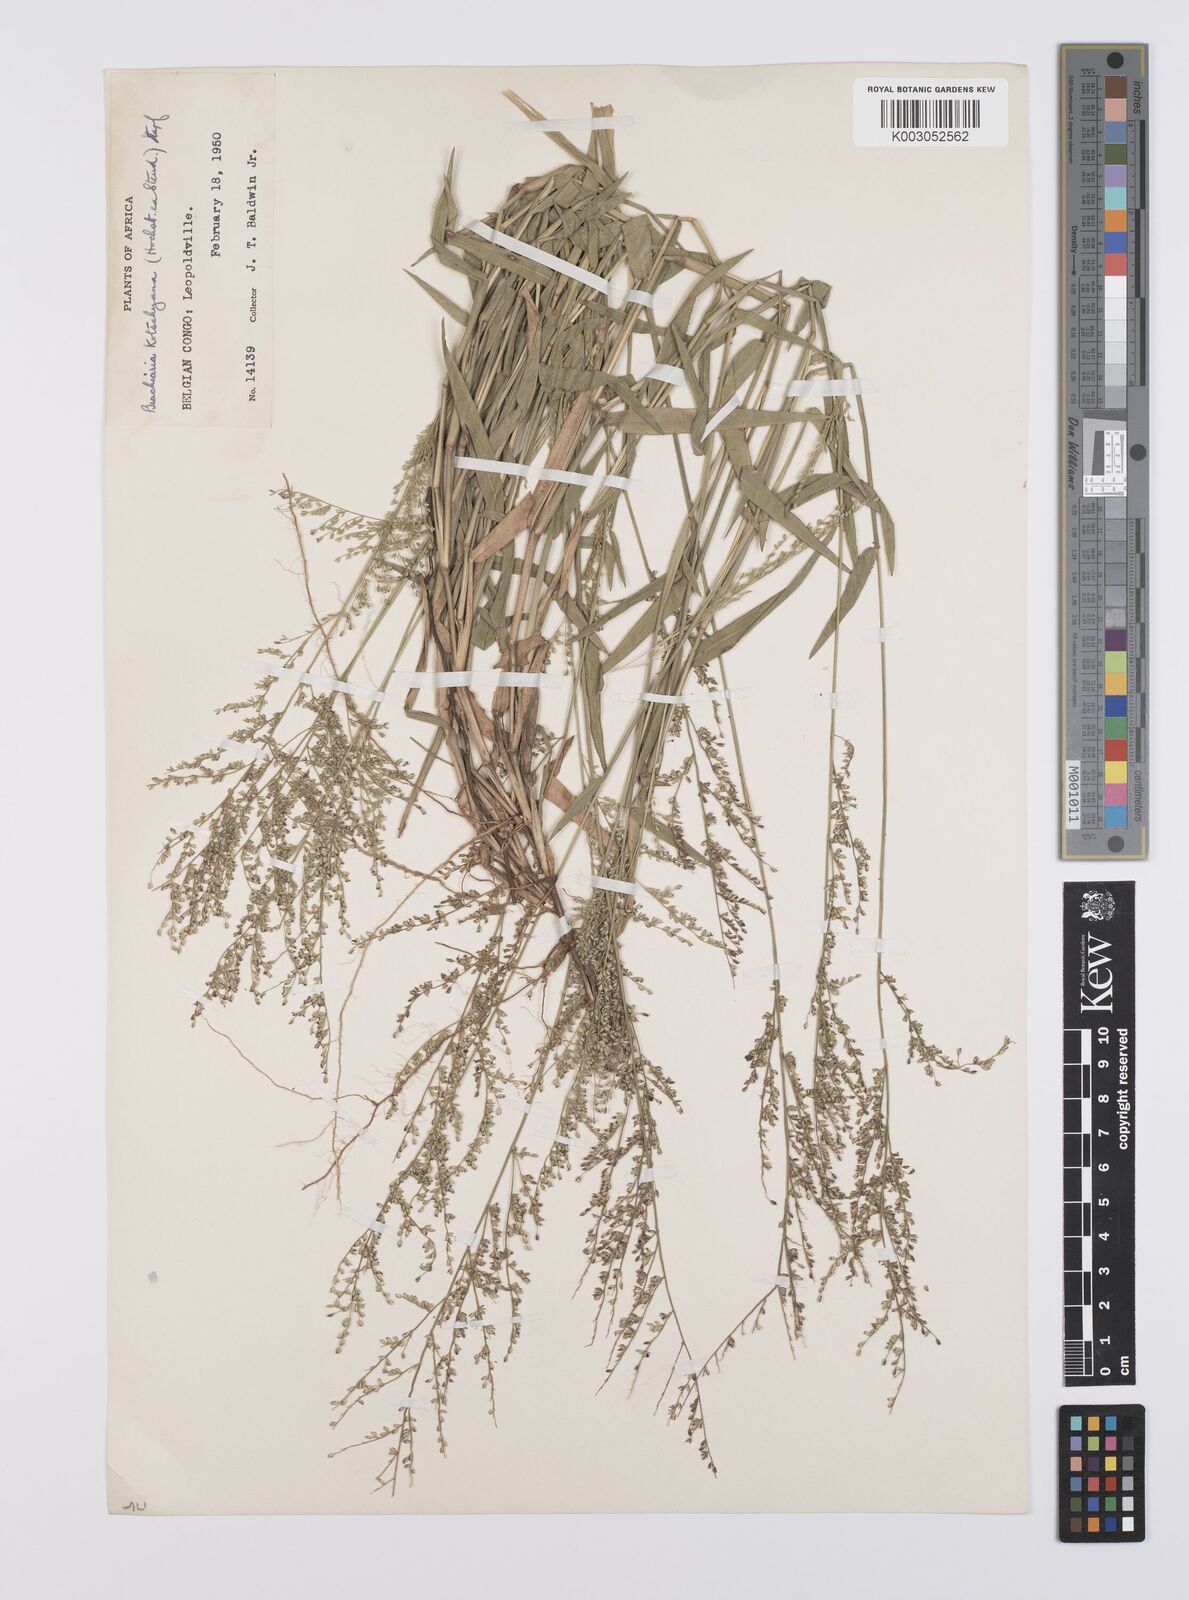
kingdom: Plantae
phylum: Tracheophyta
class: Liliopsida
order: Poales
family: Poaceae
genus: Urochloa
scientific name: Urochloa comata
